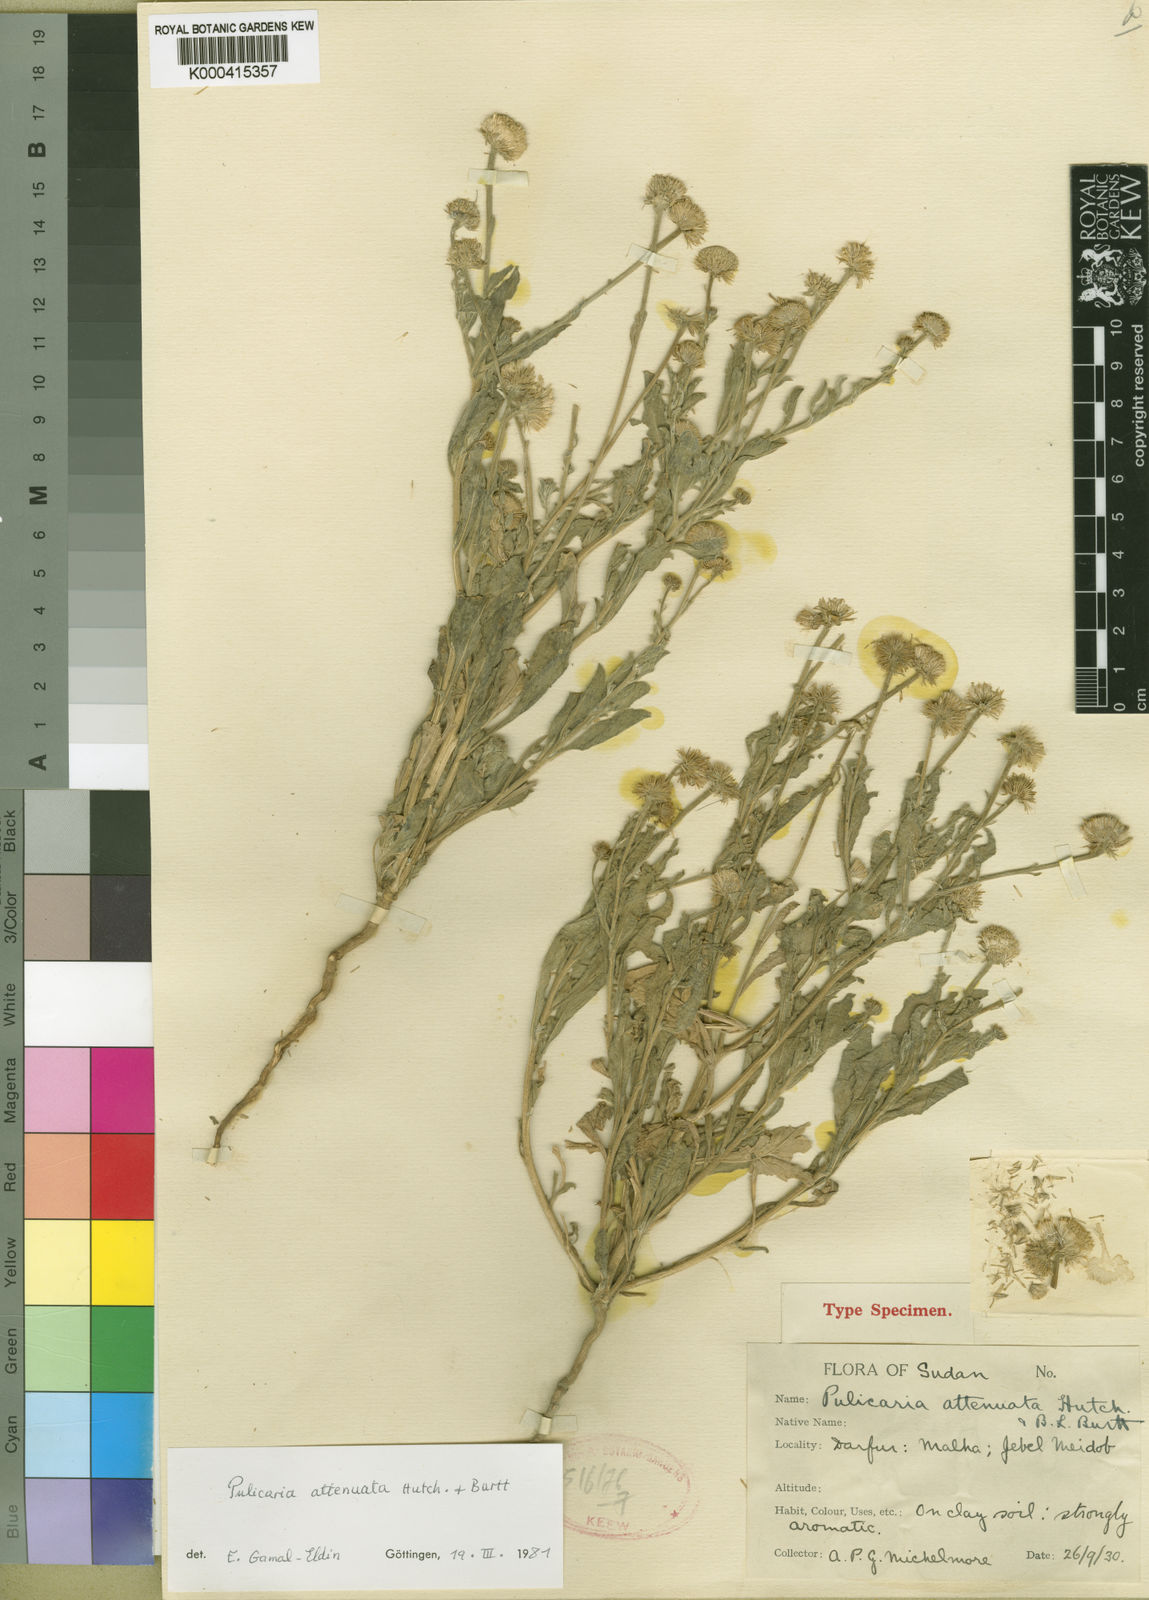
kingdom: Plantae
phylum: Tracheophyta
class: Magnoliopsida
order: Asterales
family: Asteraceae
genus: Pulicaria
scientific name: Pulicaria attentuata
